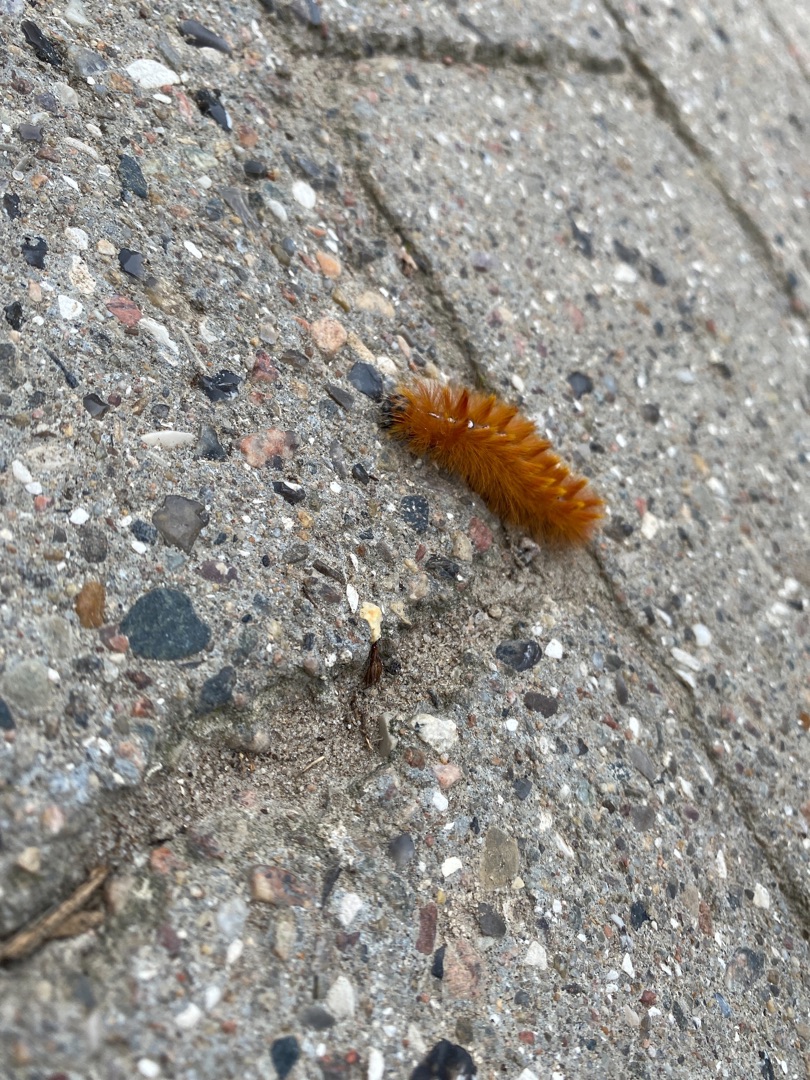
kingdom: Animalia
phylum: Arthropoda
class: Insecta
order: Lepidoptera
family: Noctuidae
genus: Acronicta
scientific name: Acronicta aceris
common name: Ahornugle
